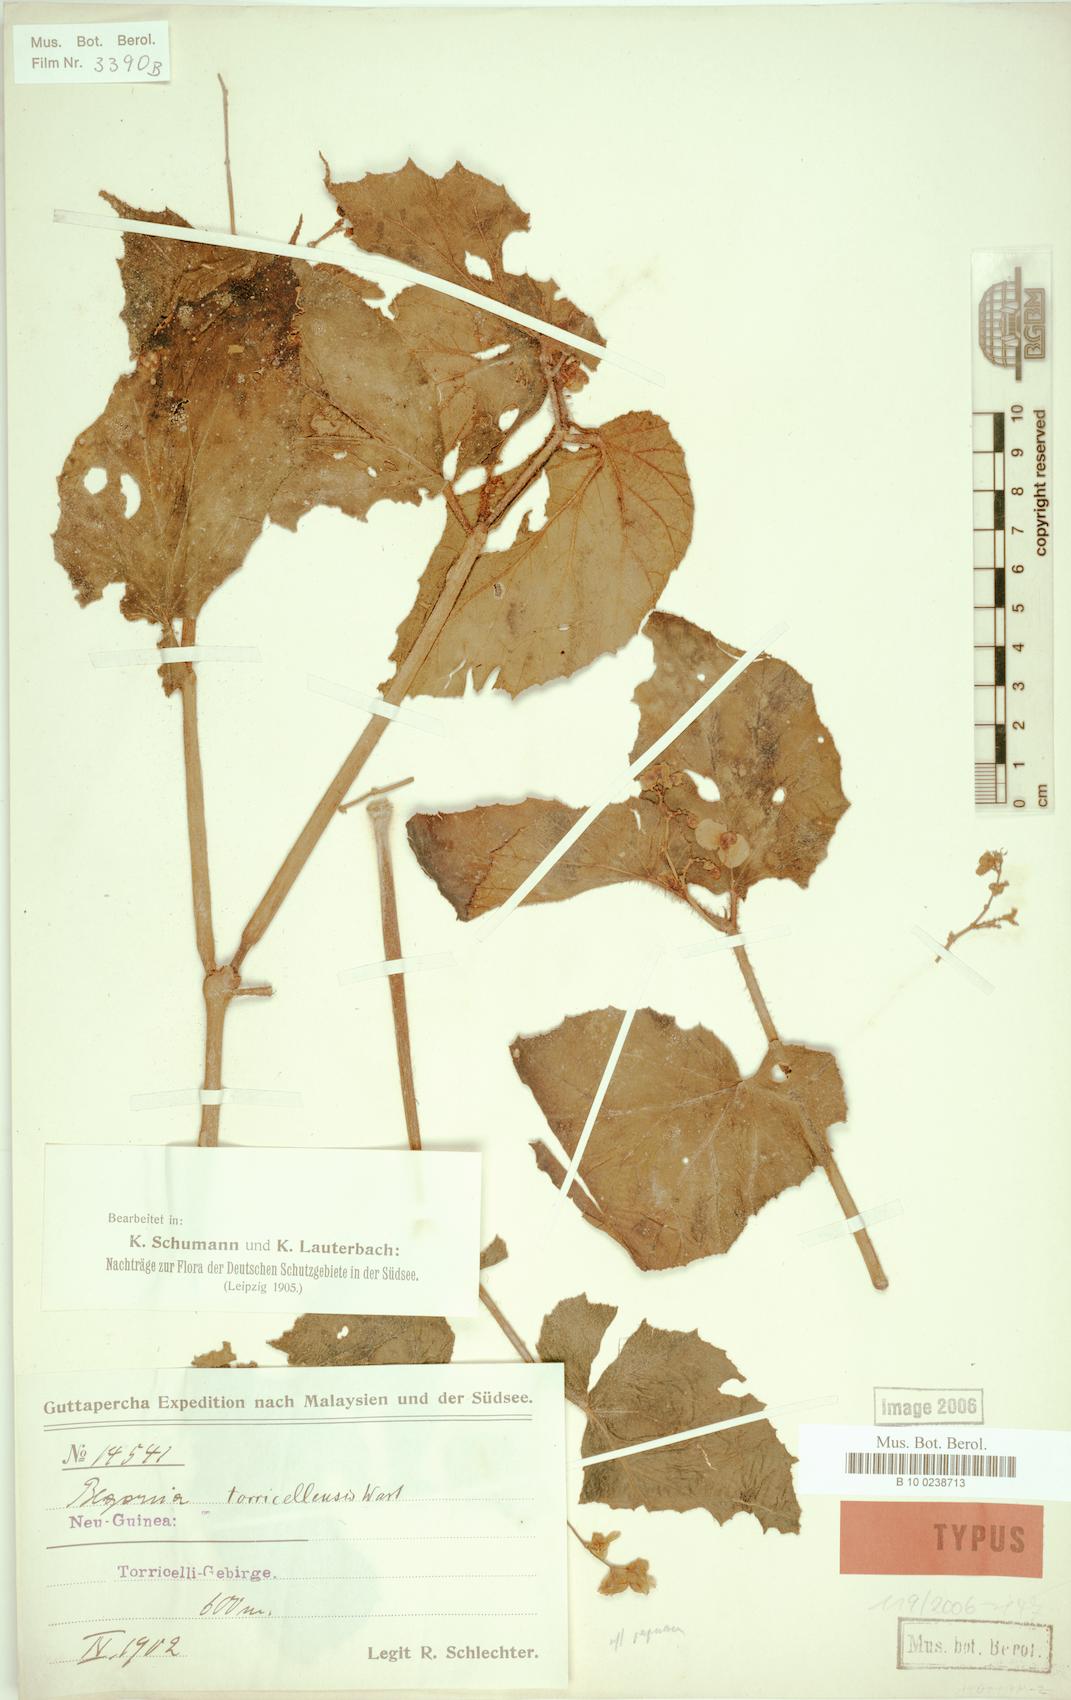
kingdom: Plantae
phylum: Tracheophyta
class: Magnoliopsida
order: Cucurbitales
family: Begoniaceae
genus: Begonia
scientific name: Begonia torricellensis
